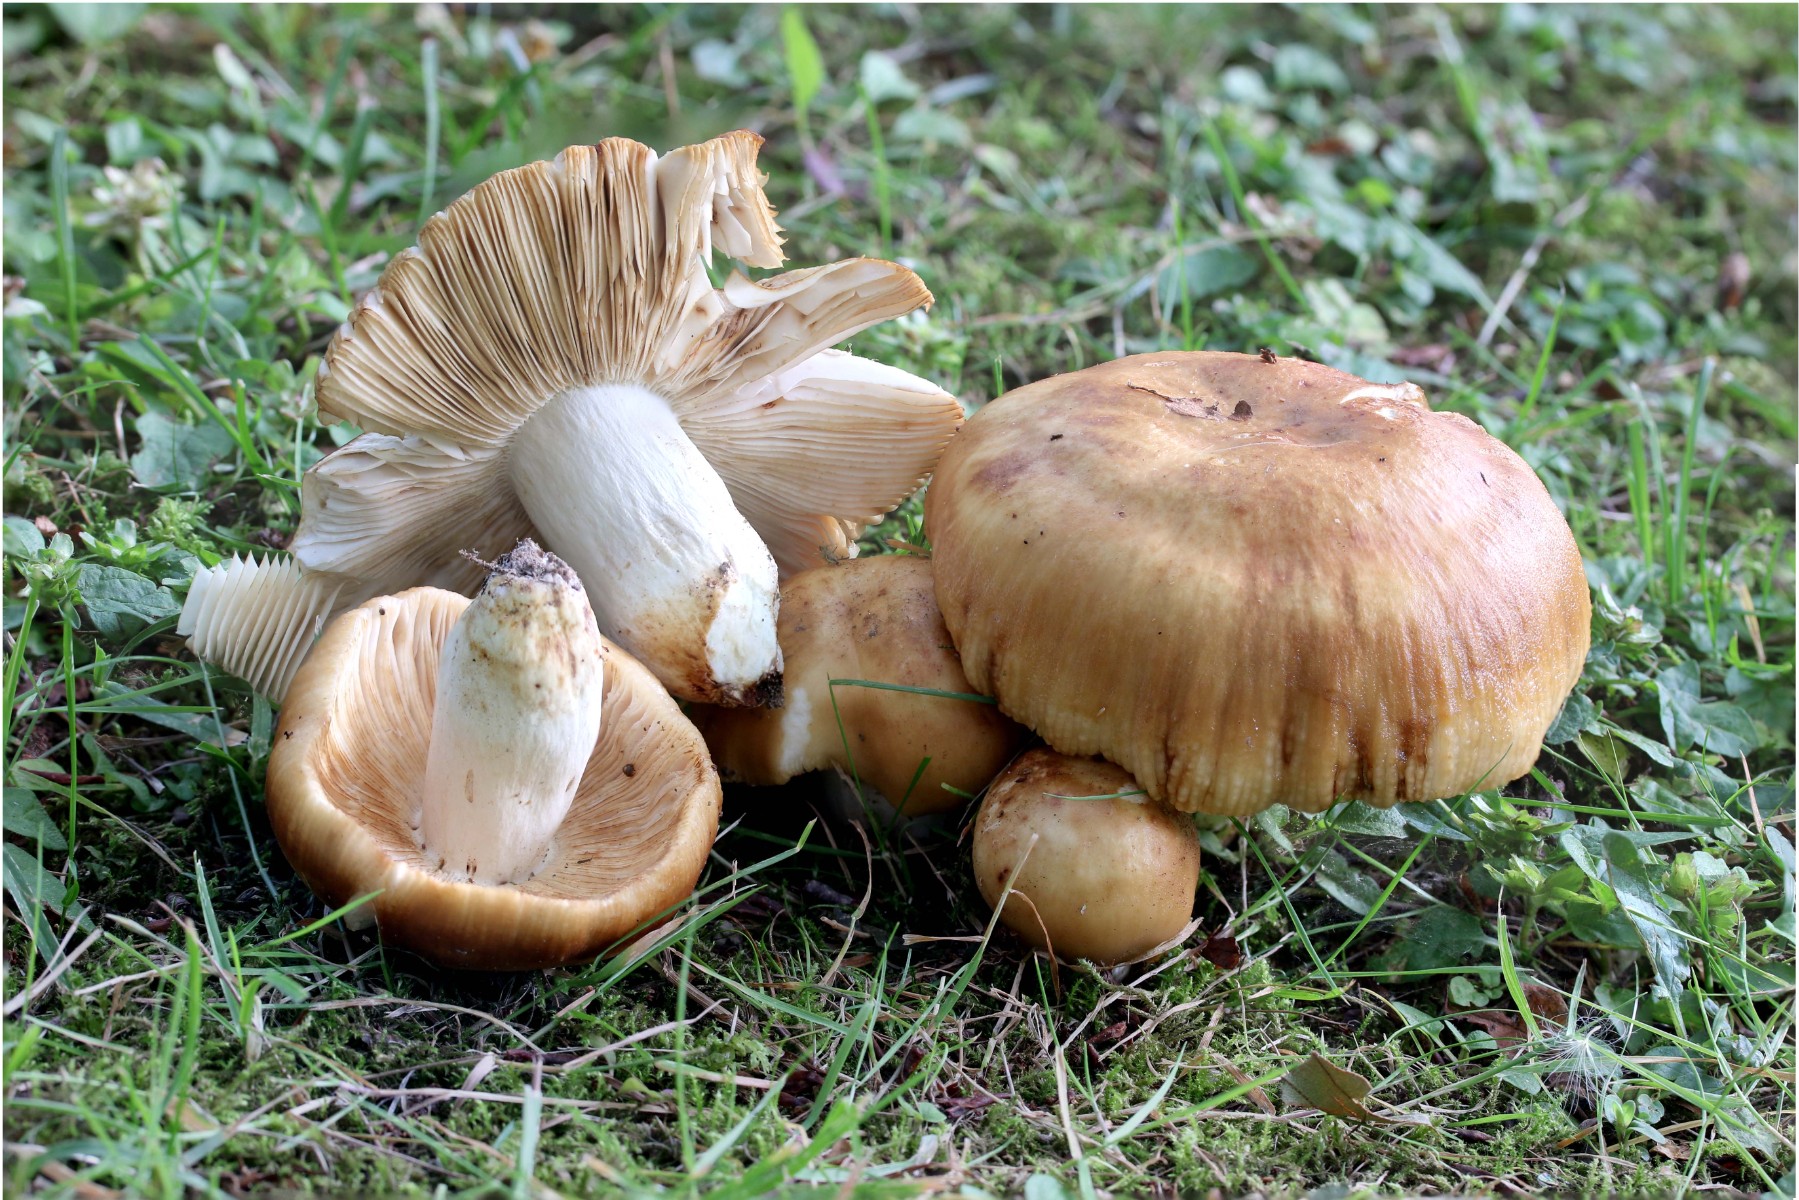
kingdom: Fungi
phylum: Basidiomycota
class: Agaricomycetes
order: Russulales
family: Russulaceae
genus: Russula
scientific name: Russula foetens
